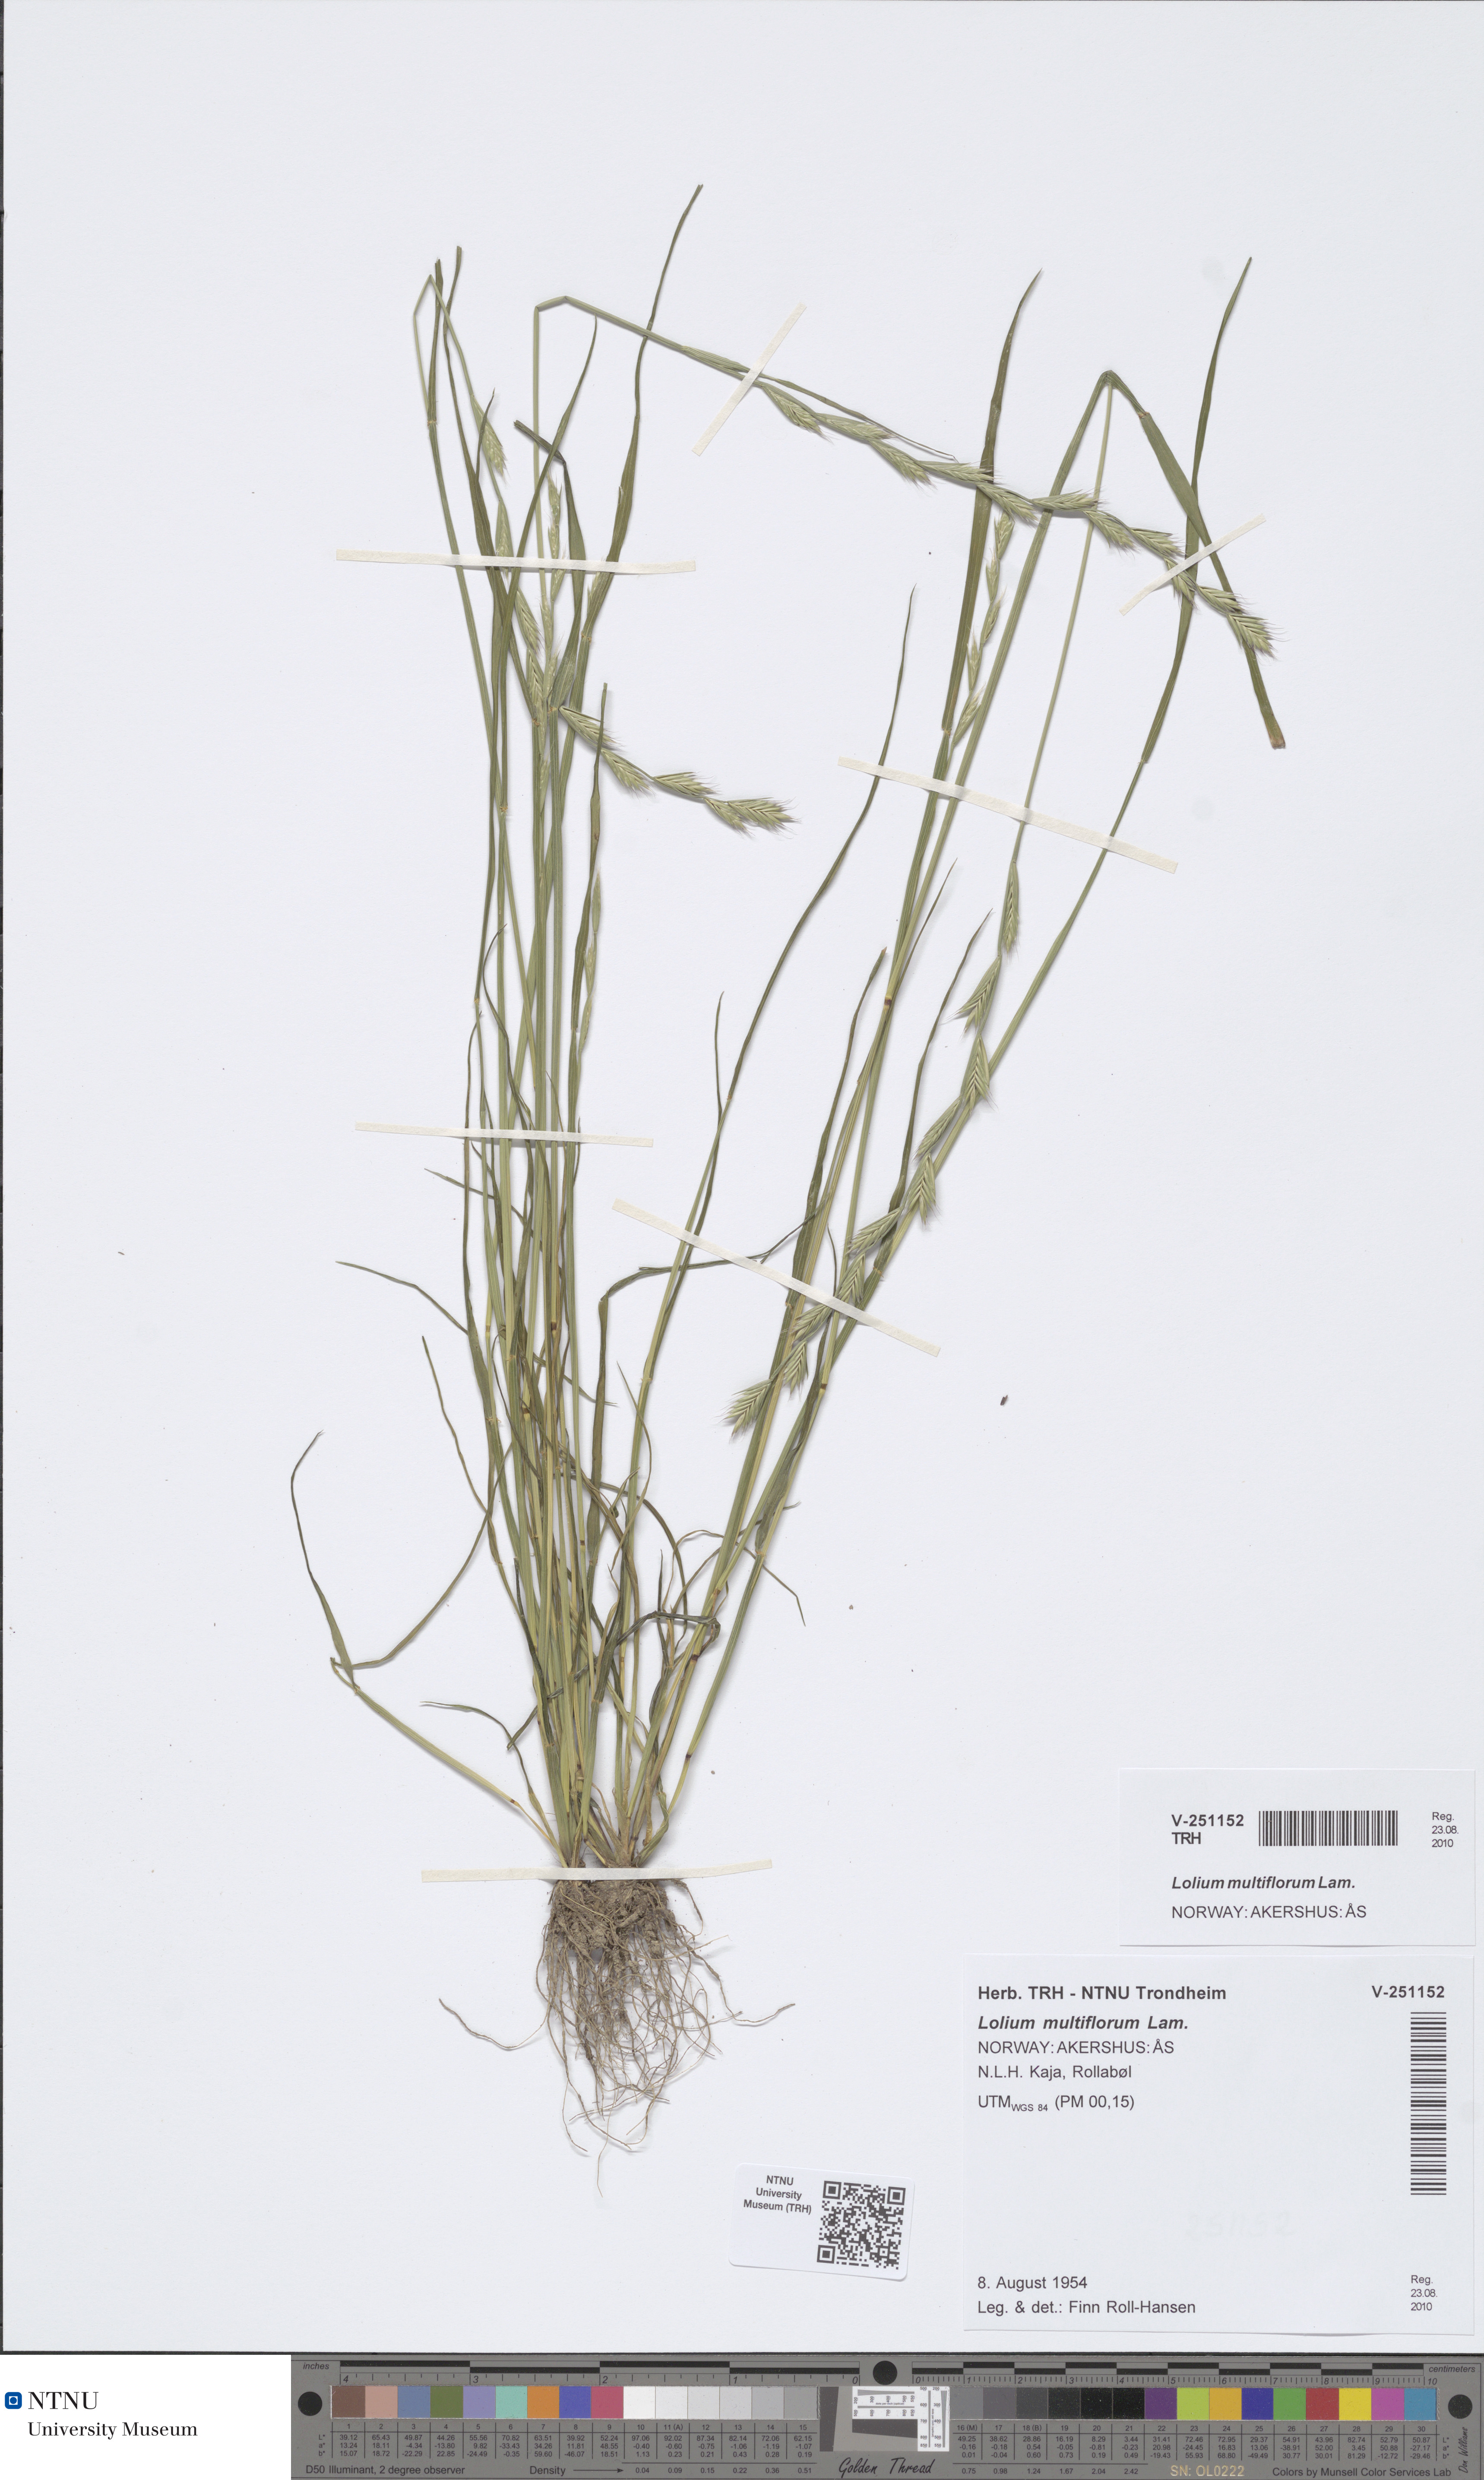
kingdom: Plantae
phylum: Tracheophyta
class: Liliopsida
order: Poales
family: Poaceae
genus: Lolium
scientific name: Lolium multiflorum
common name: Annual ryegrass
